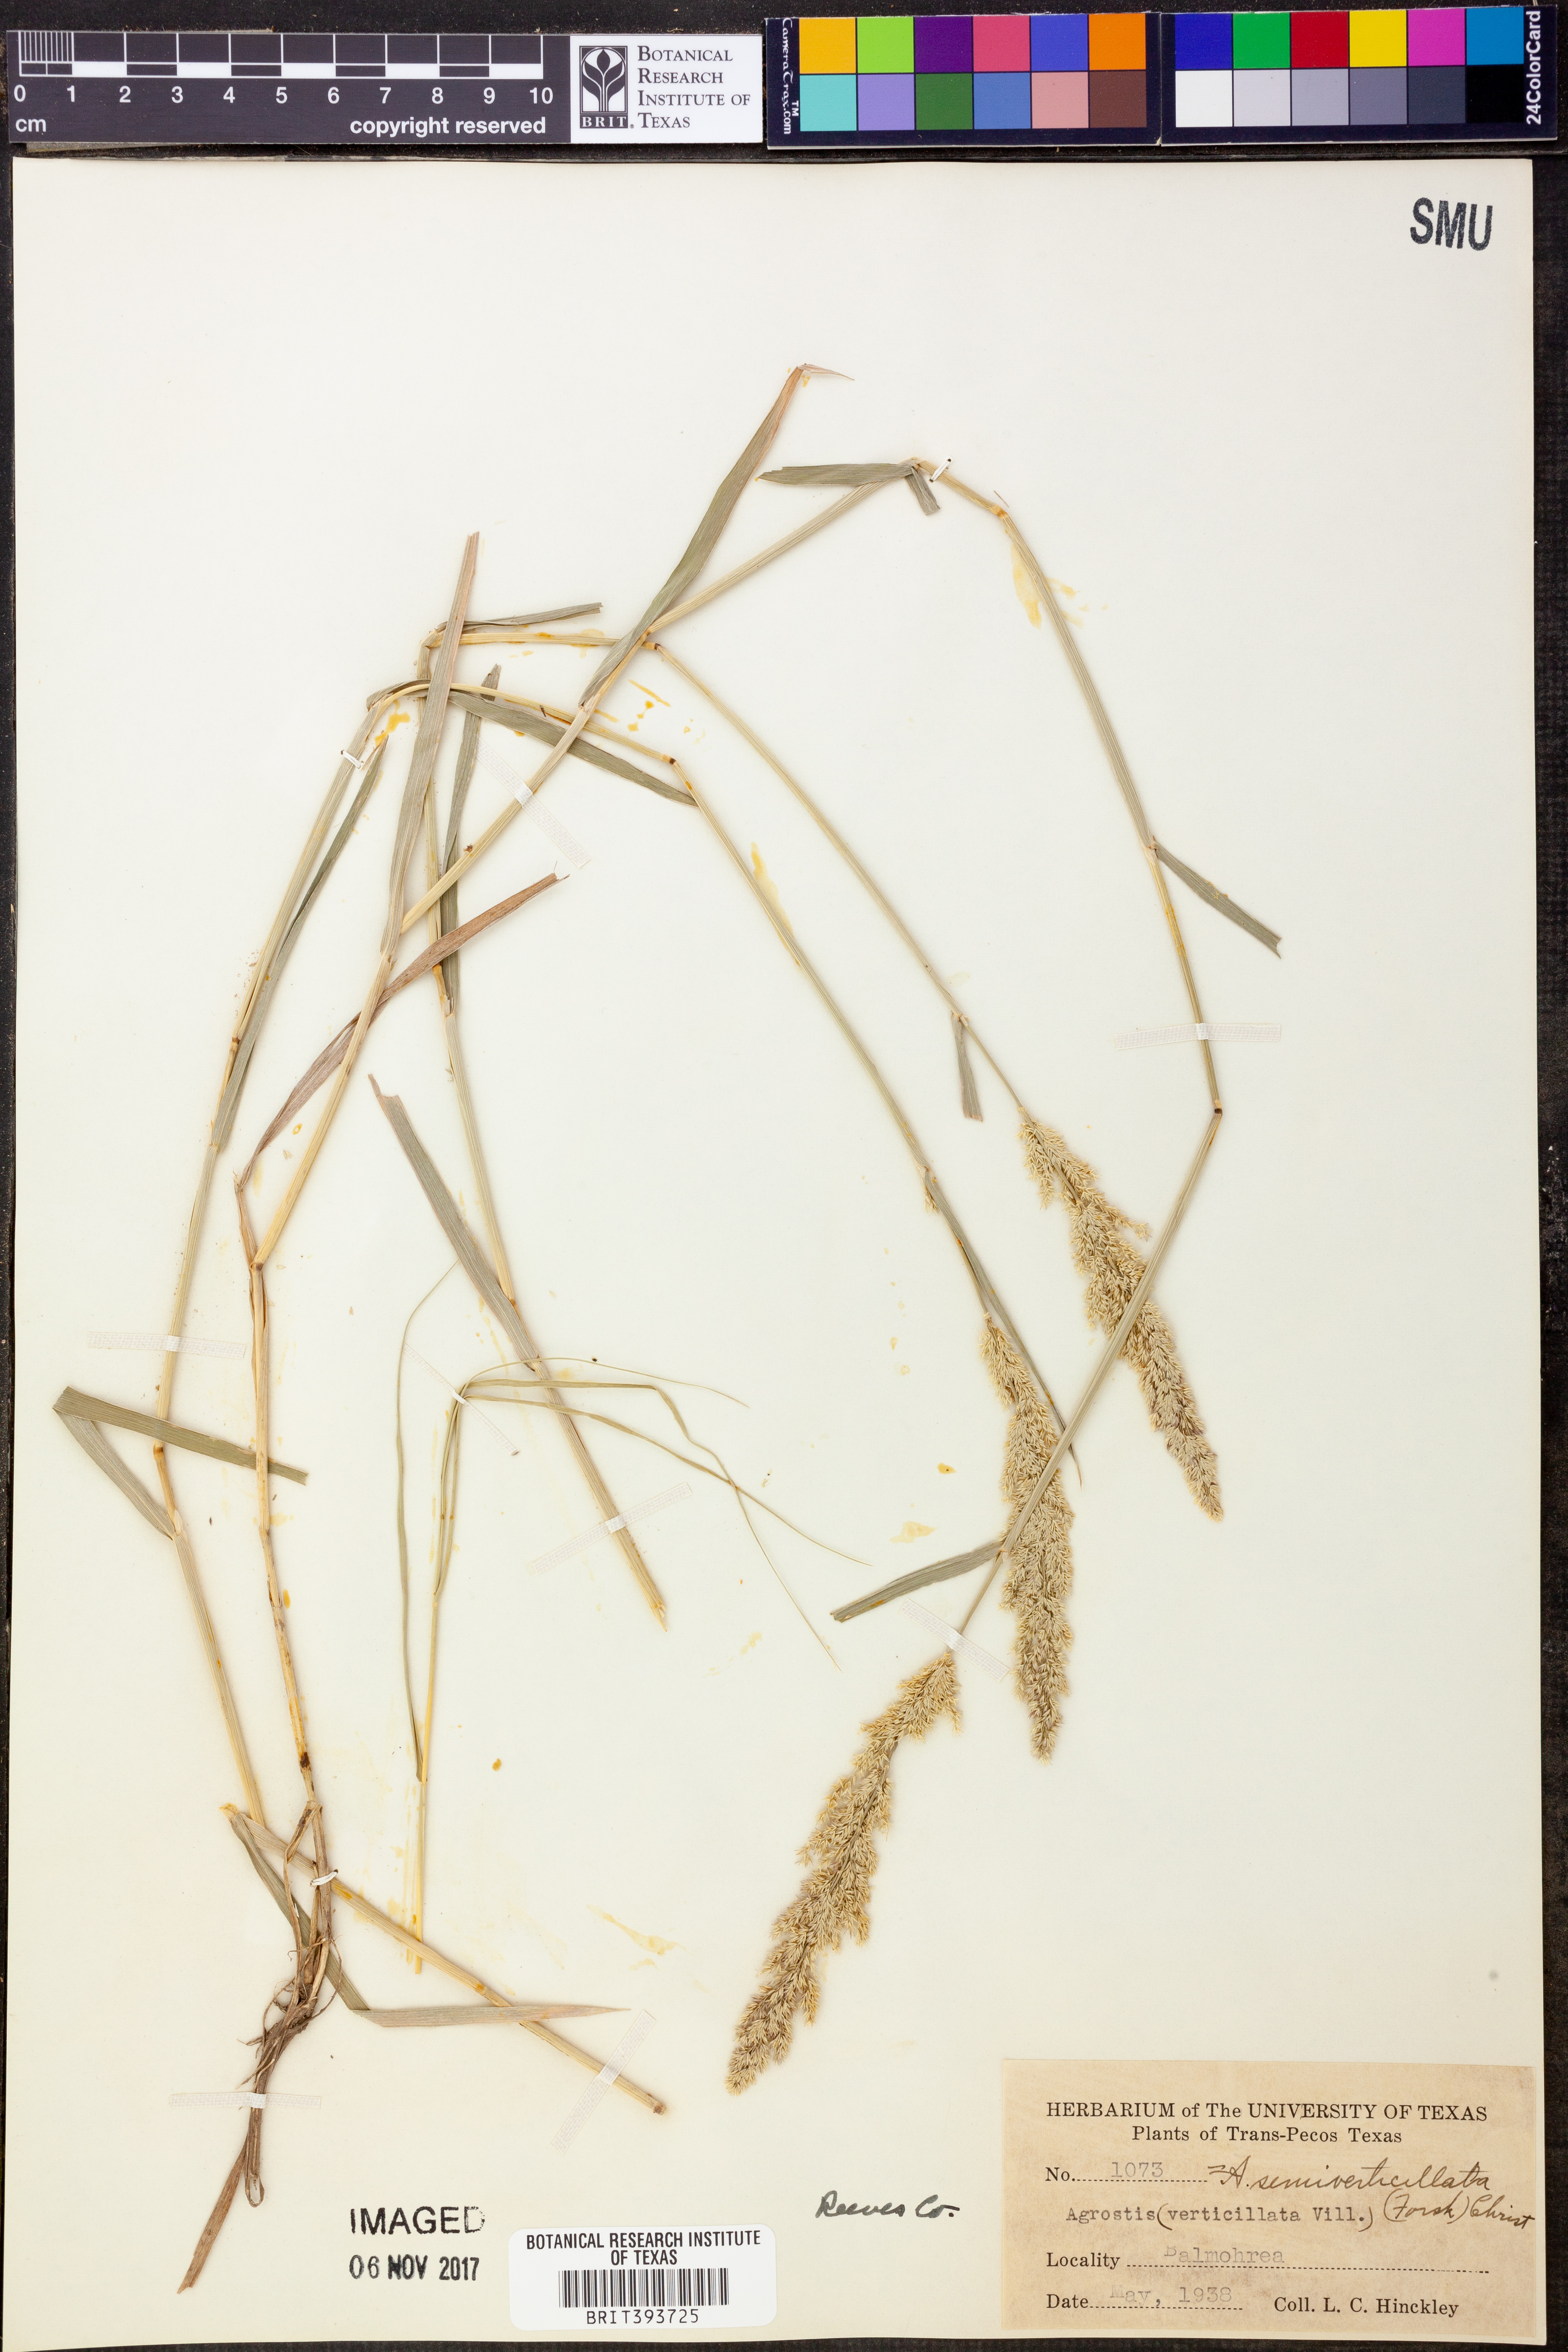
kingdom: Plantae
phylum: Tracheophyta
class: Liliopsida
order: Poales
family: Poaceae
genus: Polypogon
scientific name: Polypogon viridis
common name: Water bent
